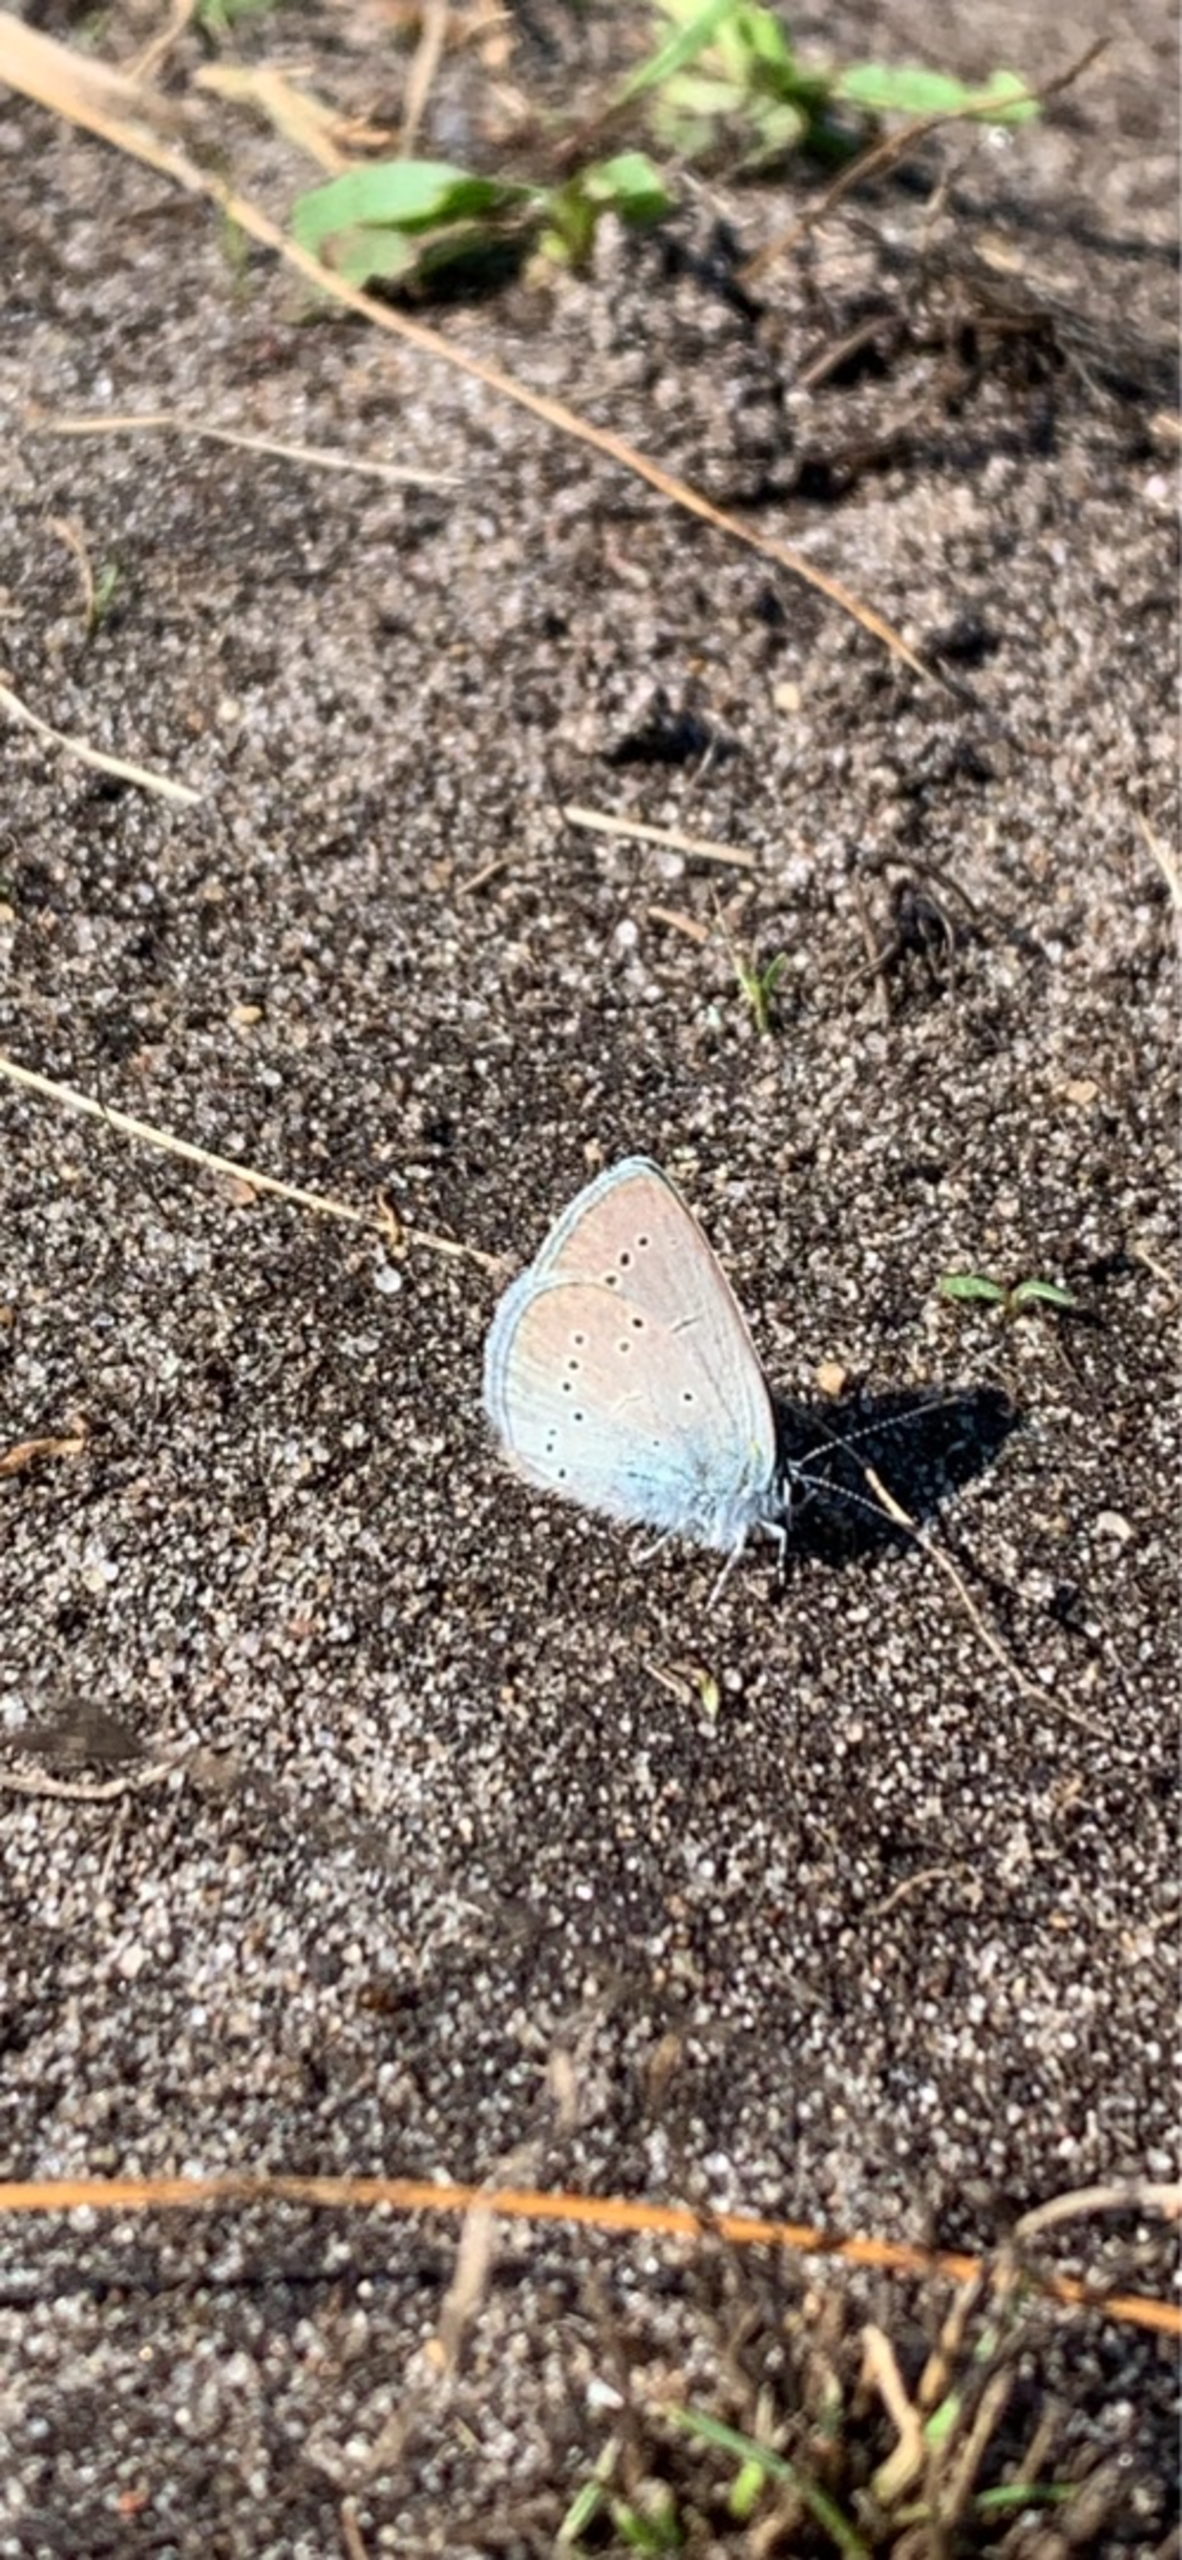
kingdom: Animalia
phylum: Arthropoda
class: Insecta
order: Lepidoptera
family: Lycaenidae
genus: Cupido
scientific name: Cupido minimus
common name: Dværgblåfugl
